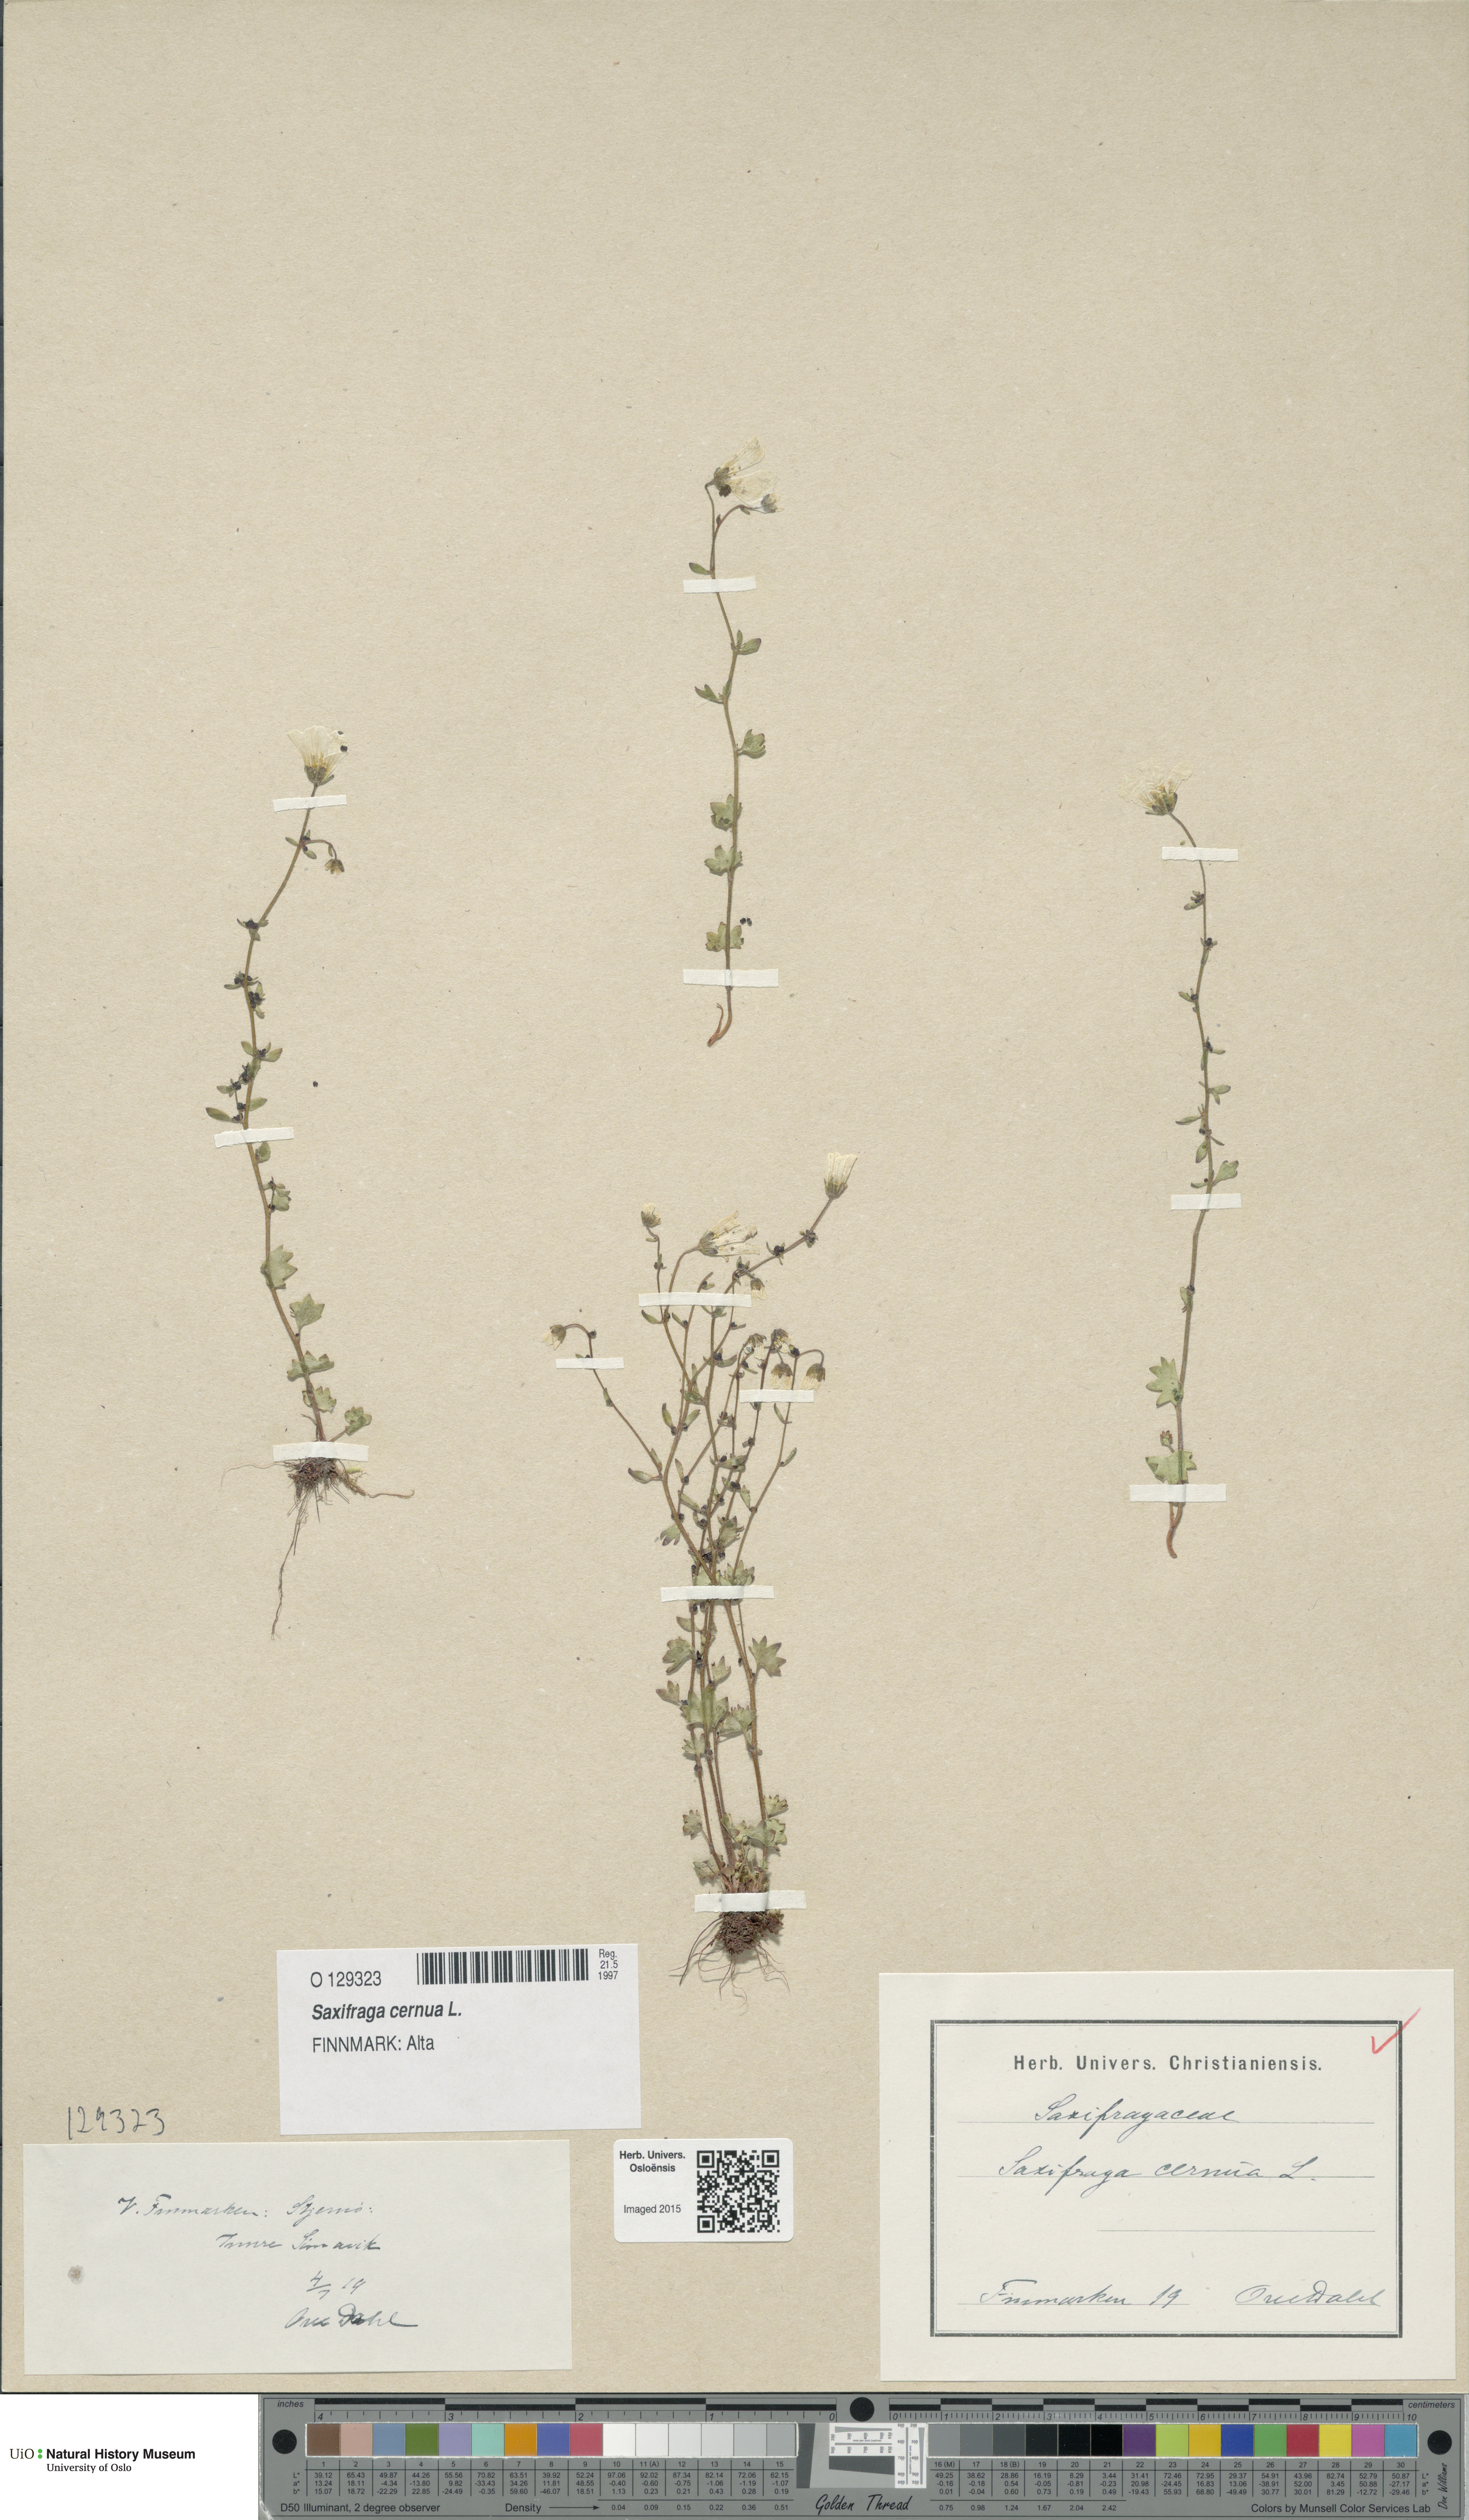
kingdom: Plantae
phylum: Tracheophyta
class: Magnoliopsida
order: Saxifragales
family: Saxifragaceae
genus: Saxifraga
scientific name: Saxifraga cernua
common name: Drooping saxifrage
